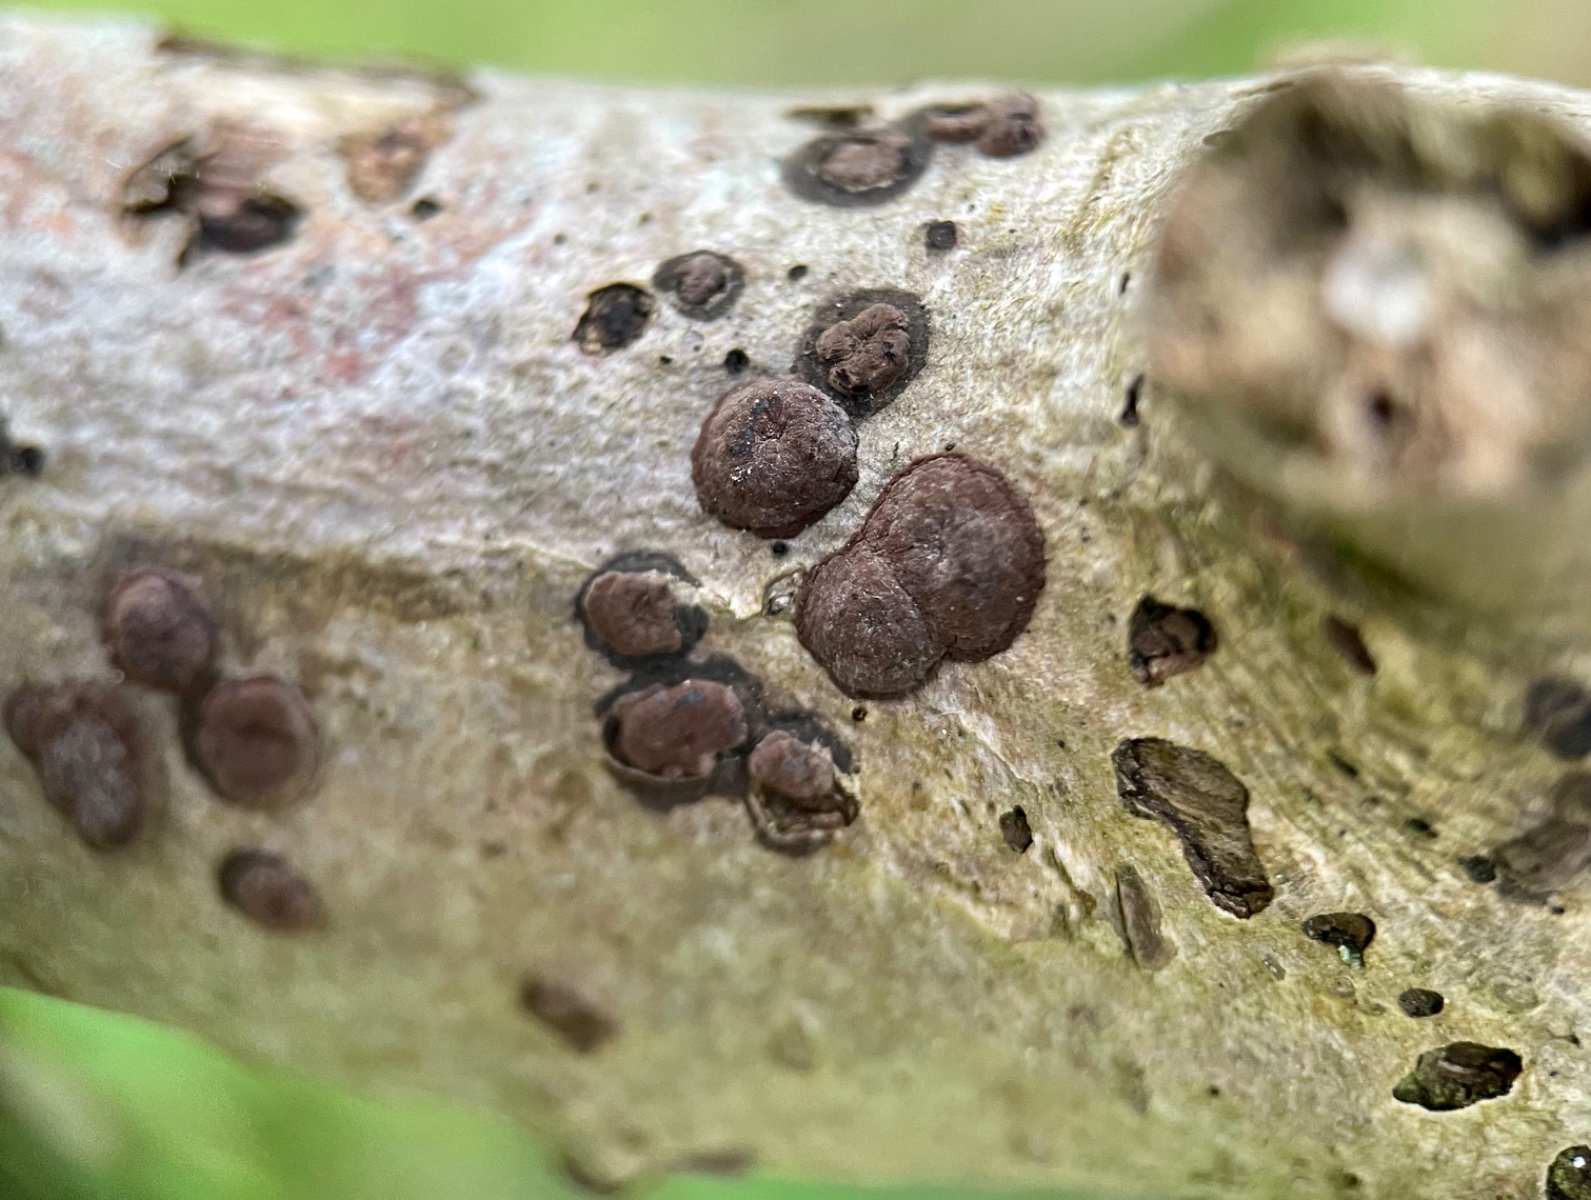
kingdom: Fungi
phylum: Ascomycota
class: Sordariomycetes
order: Xylariales
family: Hypoxylaceae
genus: Hypoxylon
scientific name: Hypoxylon fuscum
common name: kegleformet kulbær
